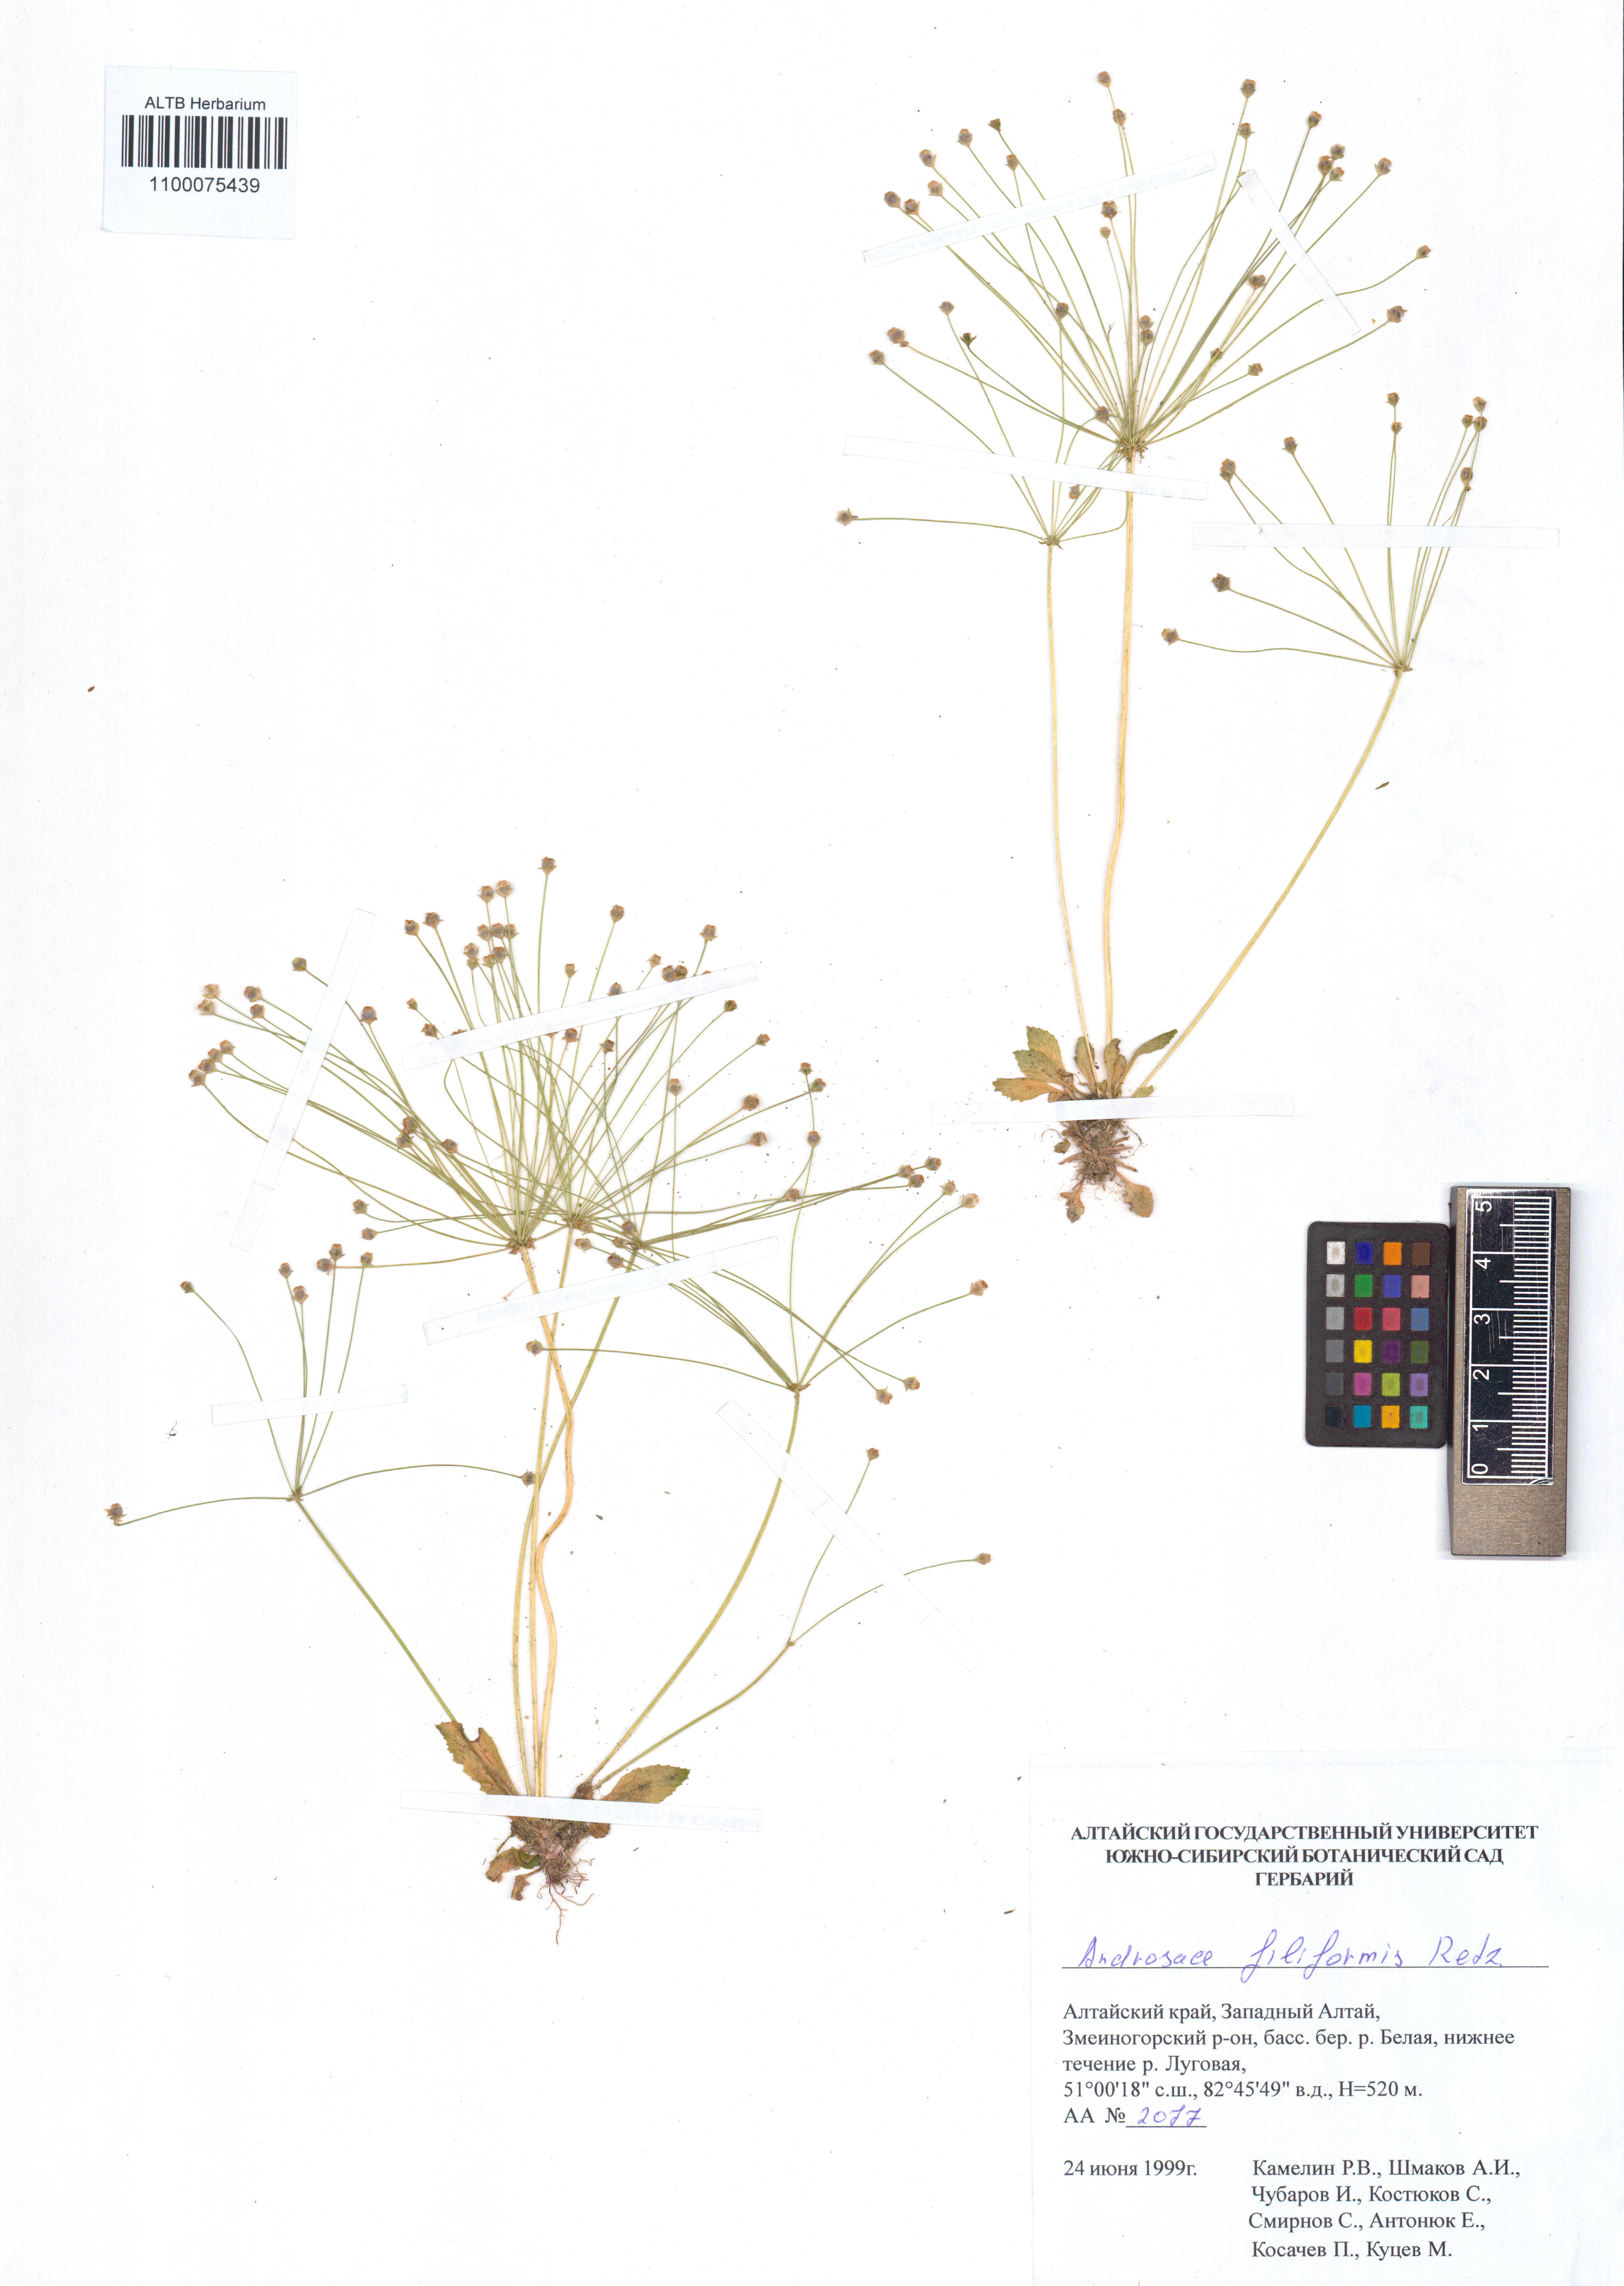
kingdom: Plantae
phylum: Tracheophyta
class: Magnoliopsida
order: Ericales
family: Primulaceae
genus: Androsace
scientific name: Androsace filiformis
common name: Filiform rock jasmine
